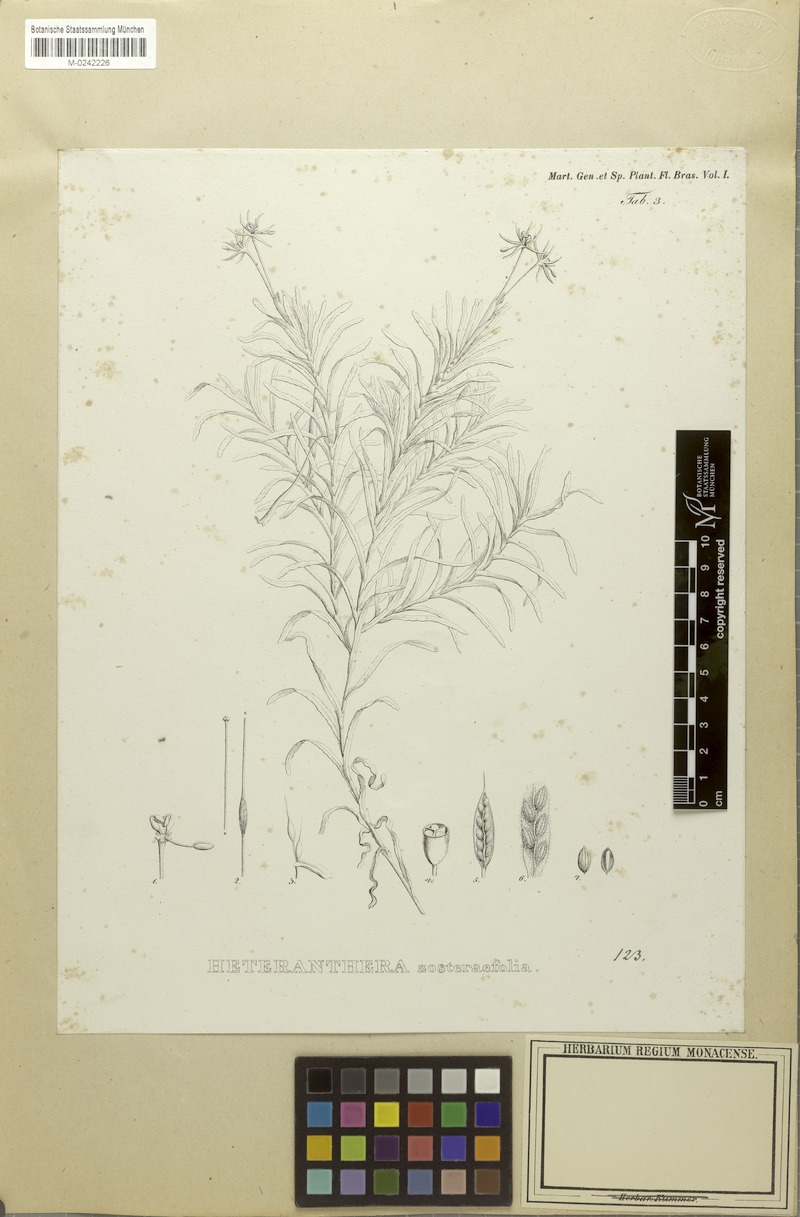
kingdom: Plantae
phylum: Tracheophyta
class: Liliopsida
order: Commelinales
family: Pontederiaceae
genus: Heteranthera
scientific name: Heteranthera zosterifolia
